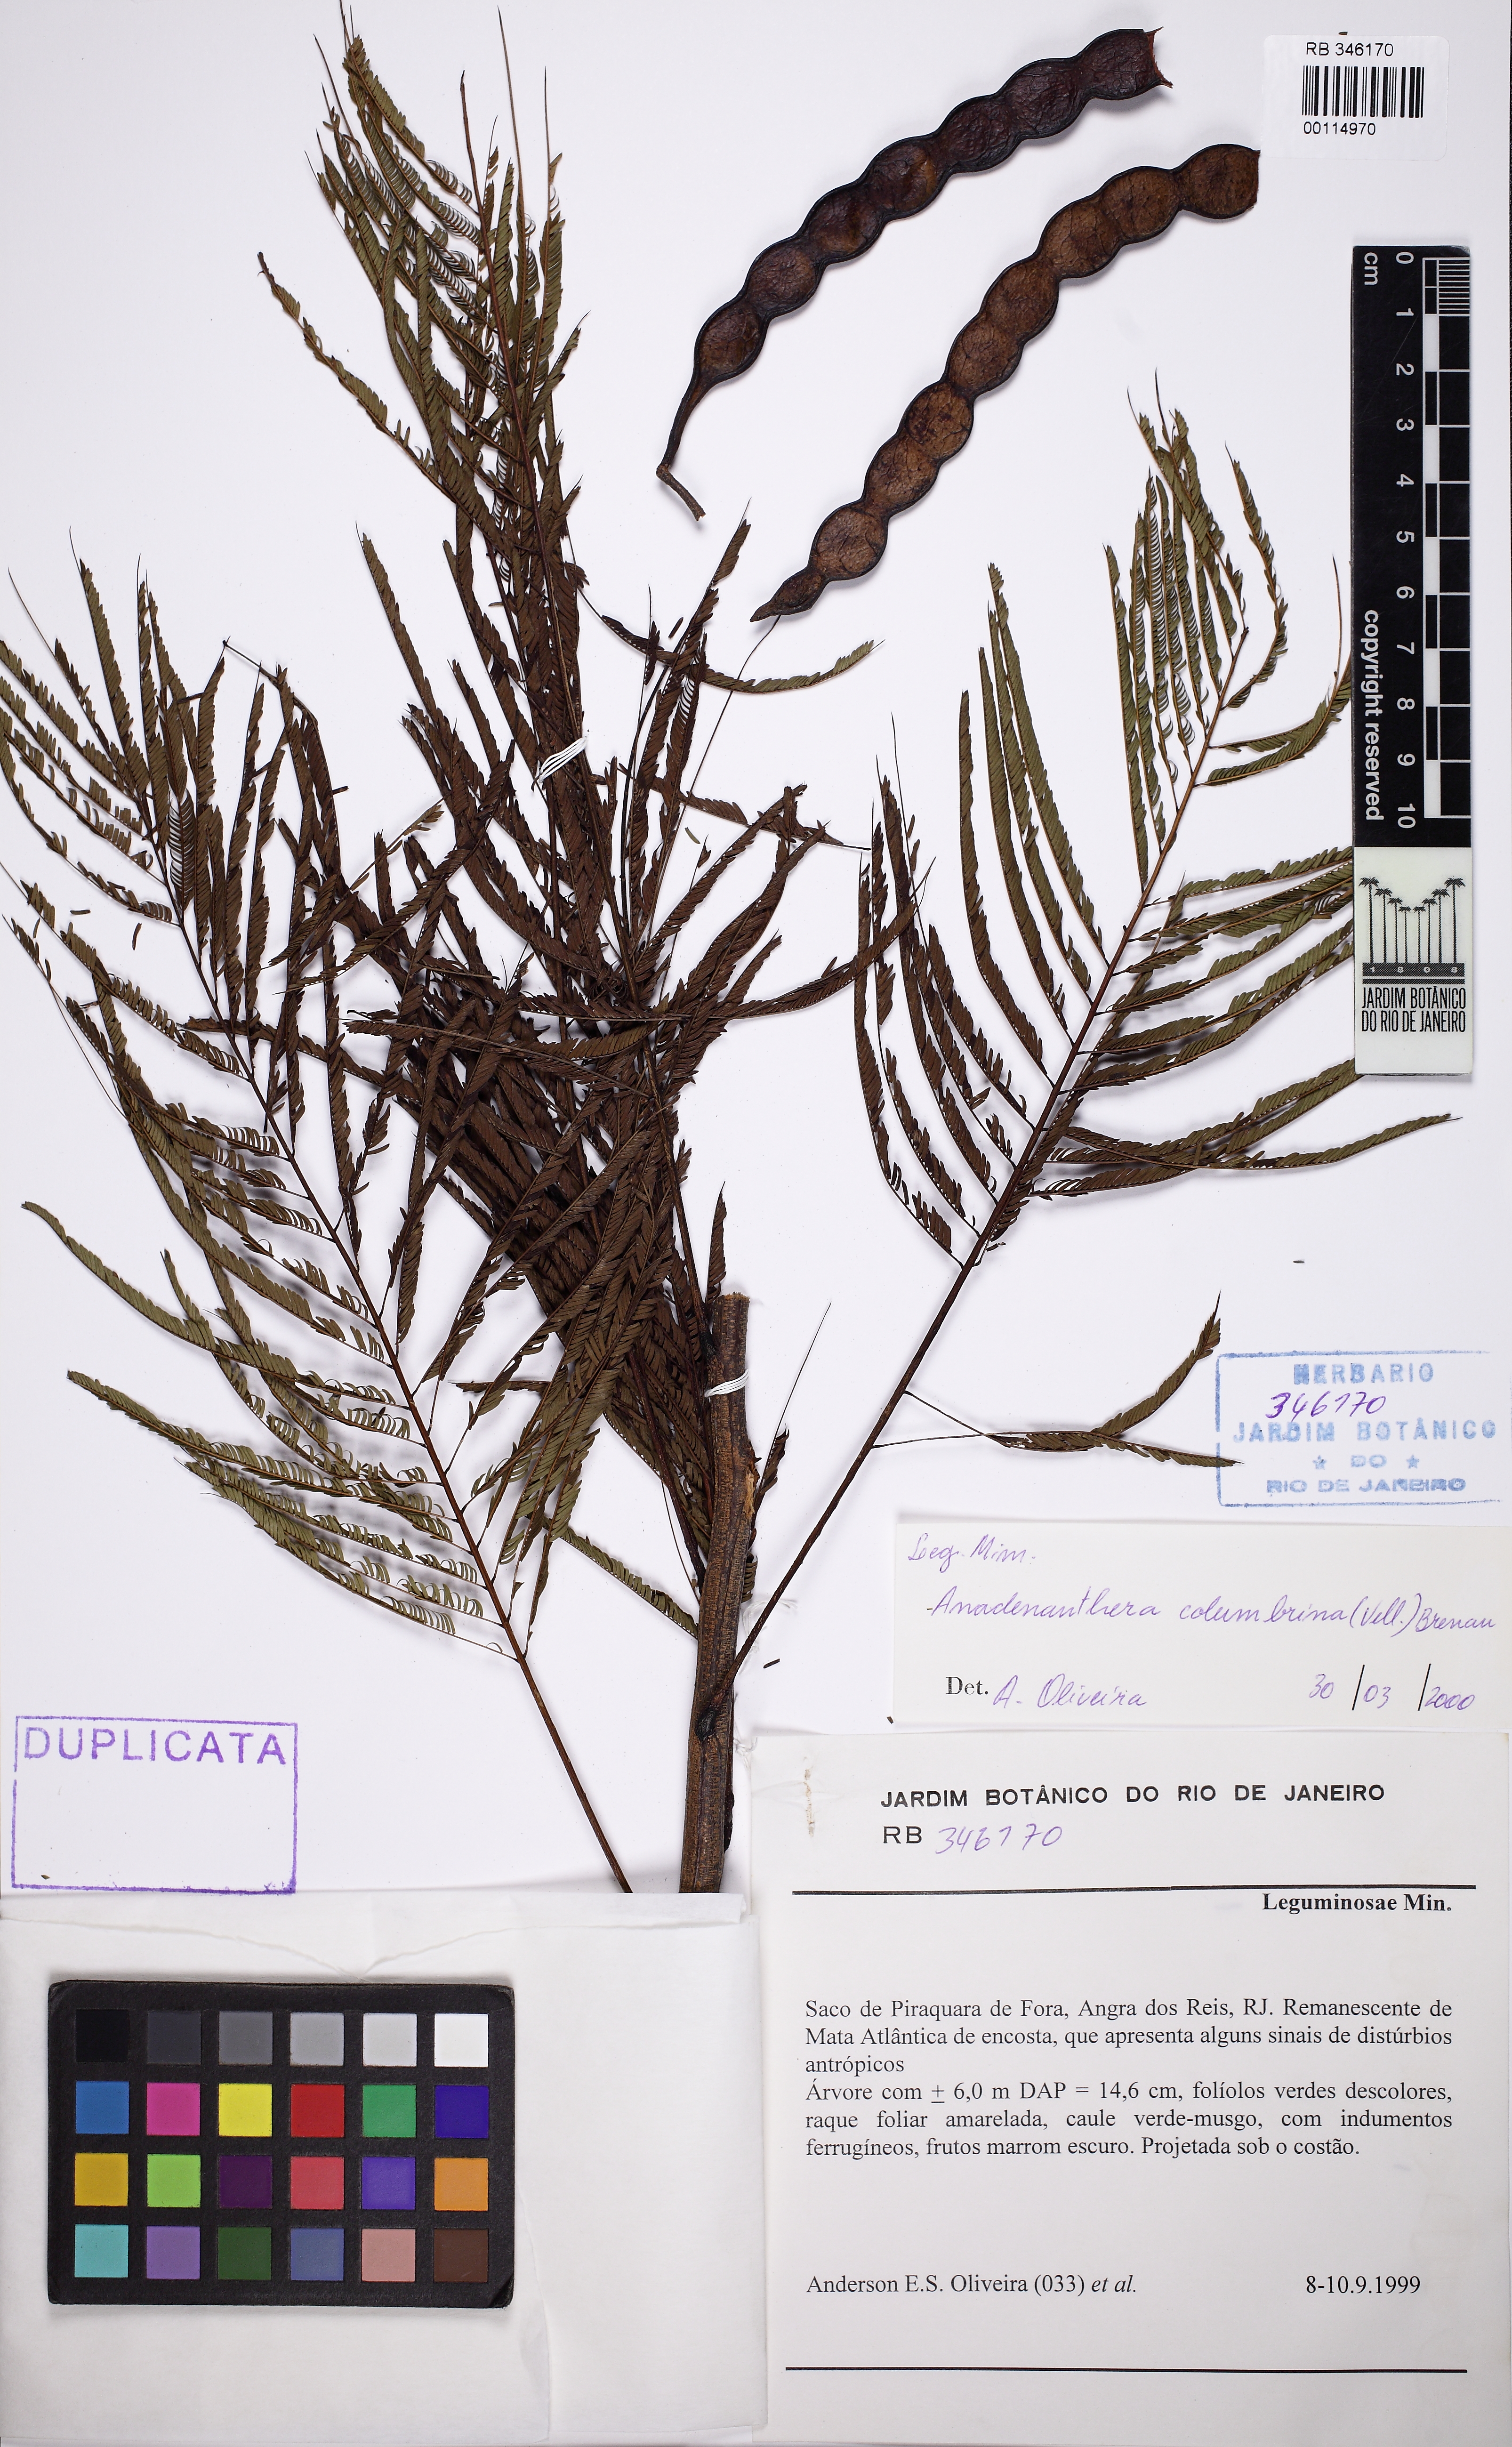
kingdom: Plantae
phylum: Tracheophyta
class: Magnoliopsida
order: Fabales
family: Fabaceae
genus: Anadenanthera
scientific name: Anadenanthera colubrina
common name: Curupay
